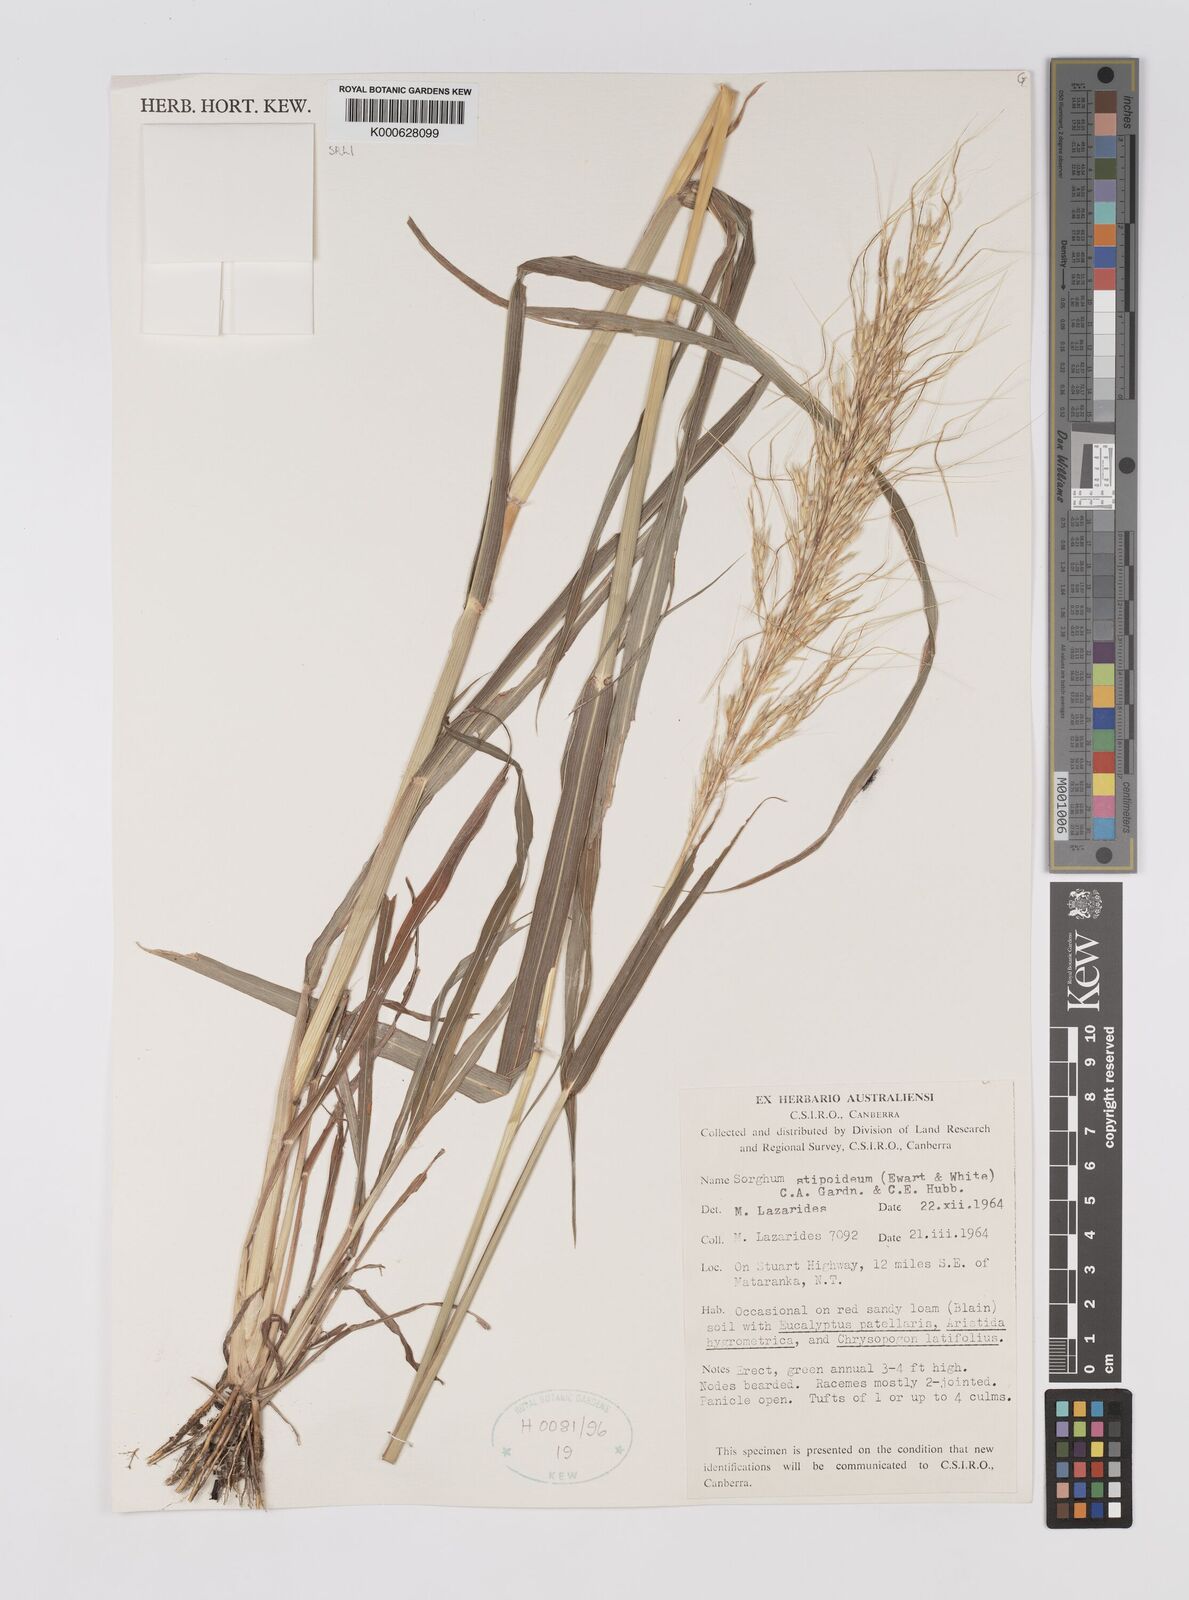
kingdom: Plantae
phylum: Tracheophyta
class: Liliopsida
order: Poales
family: Poaceae
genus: Sarga
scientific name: Sarga stipoidea
